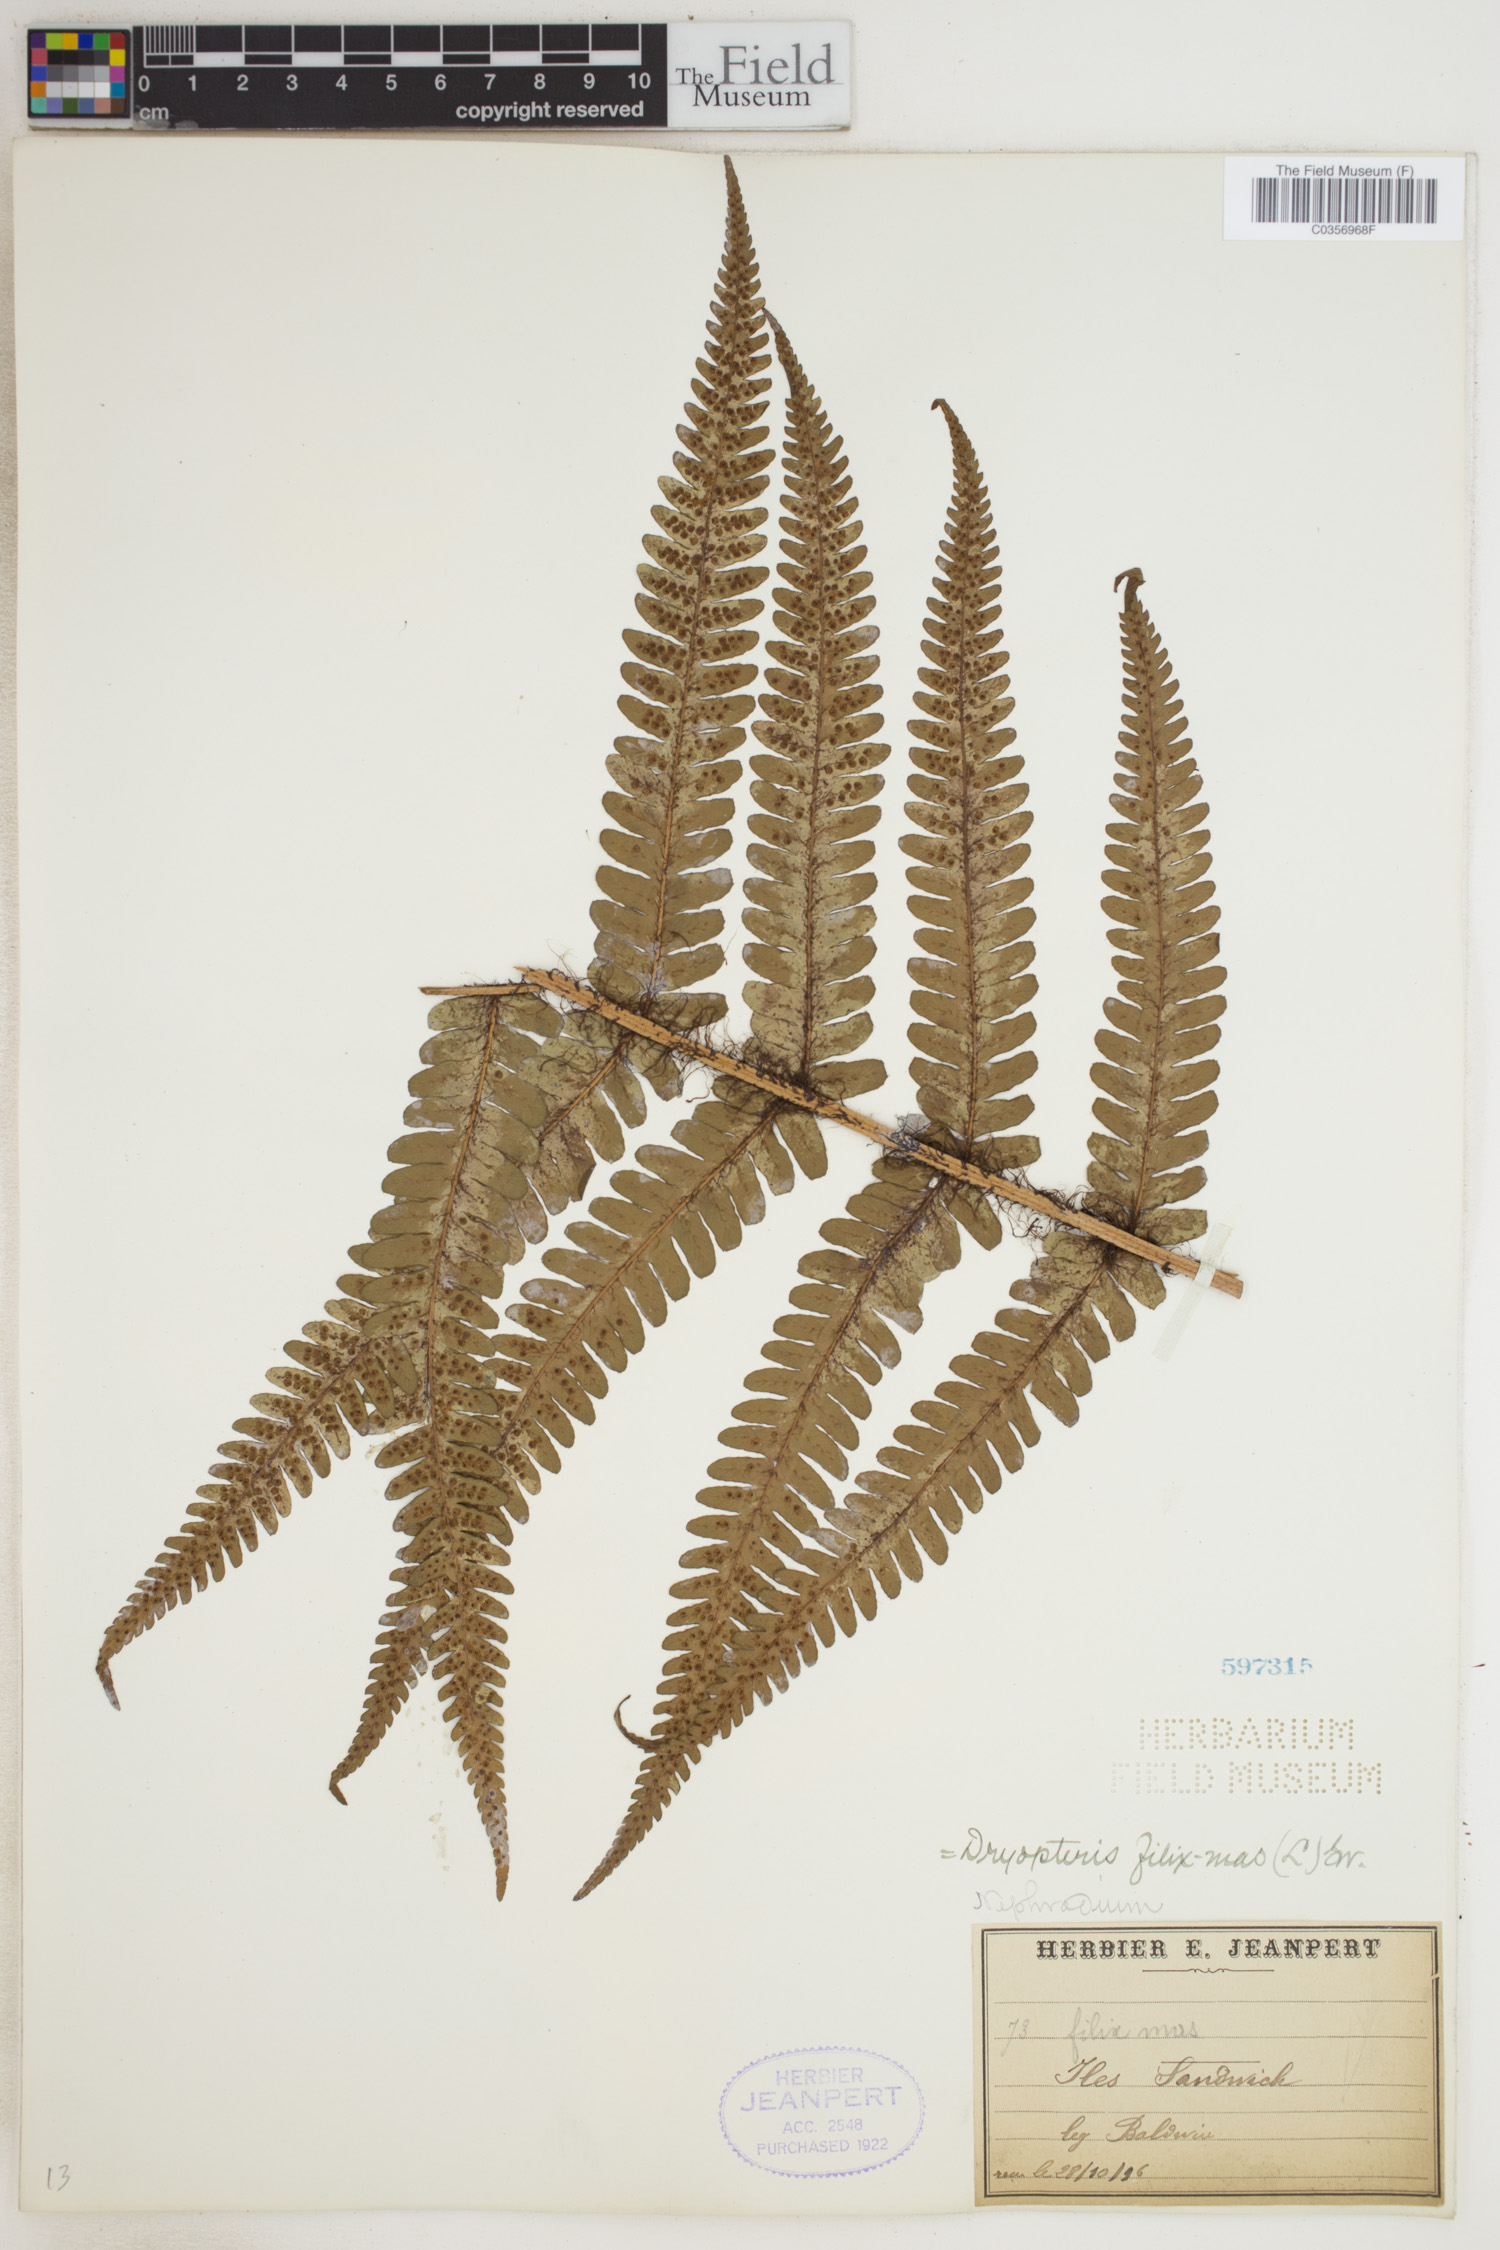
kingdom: Plantae
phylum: Tracheophyta
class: Polypodiopsida
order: Polypodiales
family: Dryopteridaceae
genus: Dryopteris
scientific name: Dryopteris filix-mas
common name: Male fern
